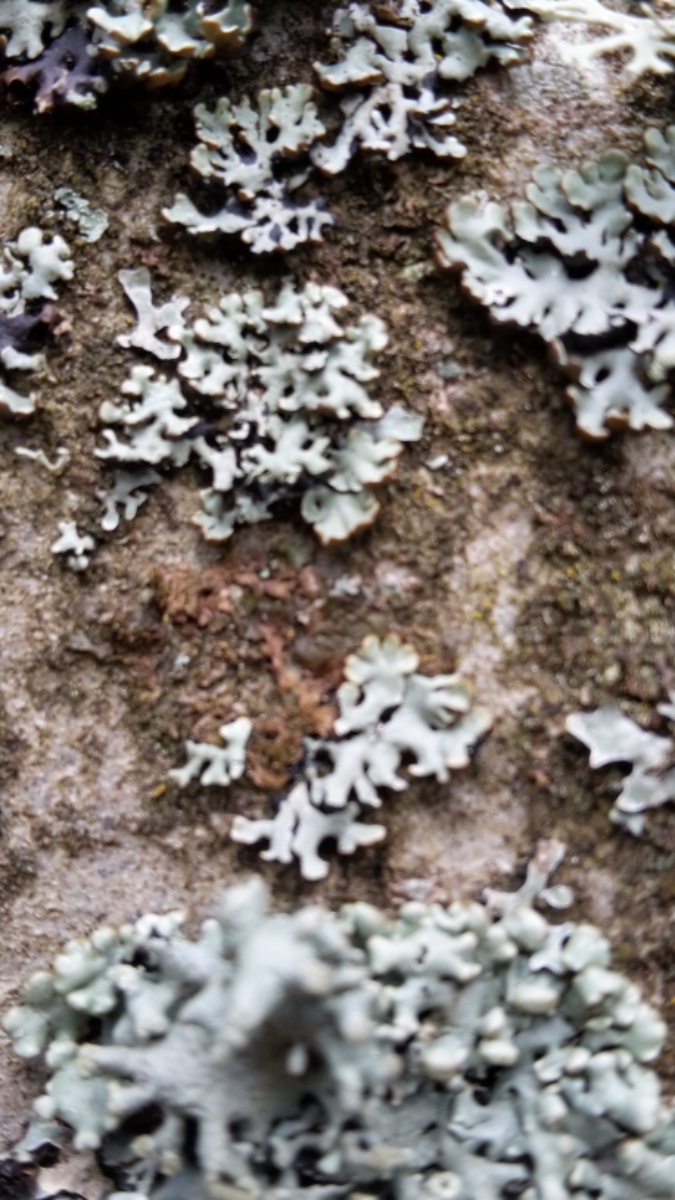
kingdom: Fungi
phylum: Ascomycota
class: Lecanoromycetes
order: Lecanorales
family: Parmeliaceae
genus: Hypogymnia
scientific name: Hypogymnia physodes
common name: almindelig kvistlav
